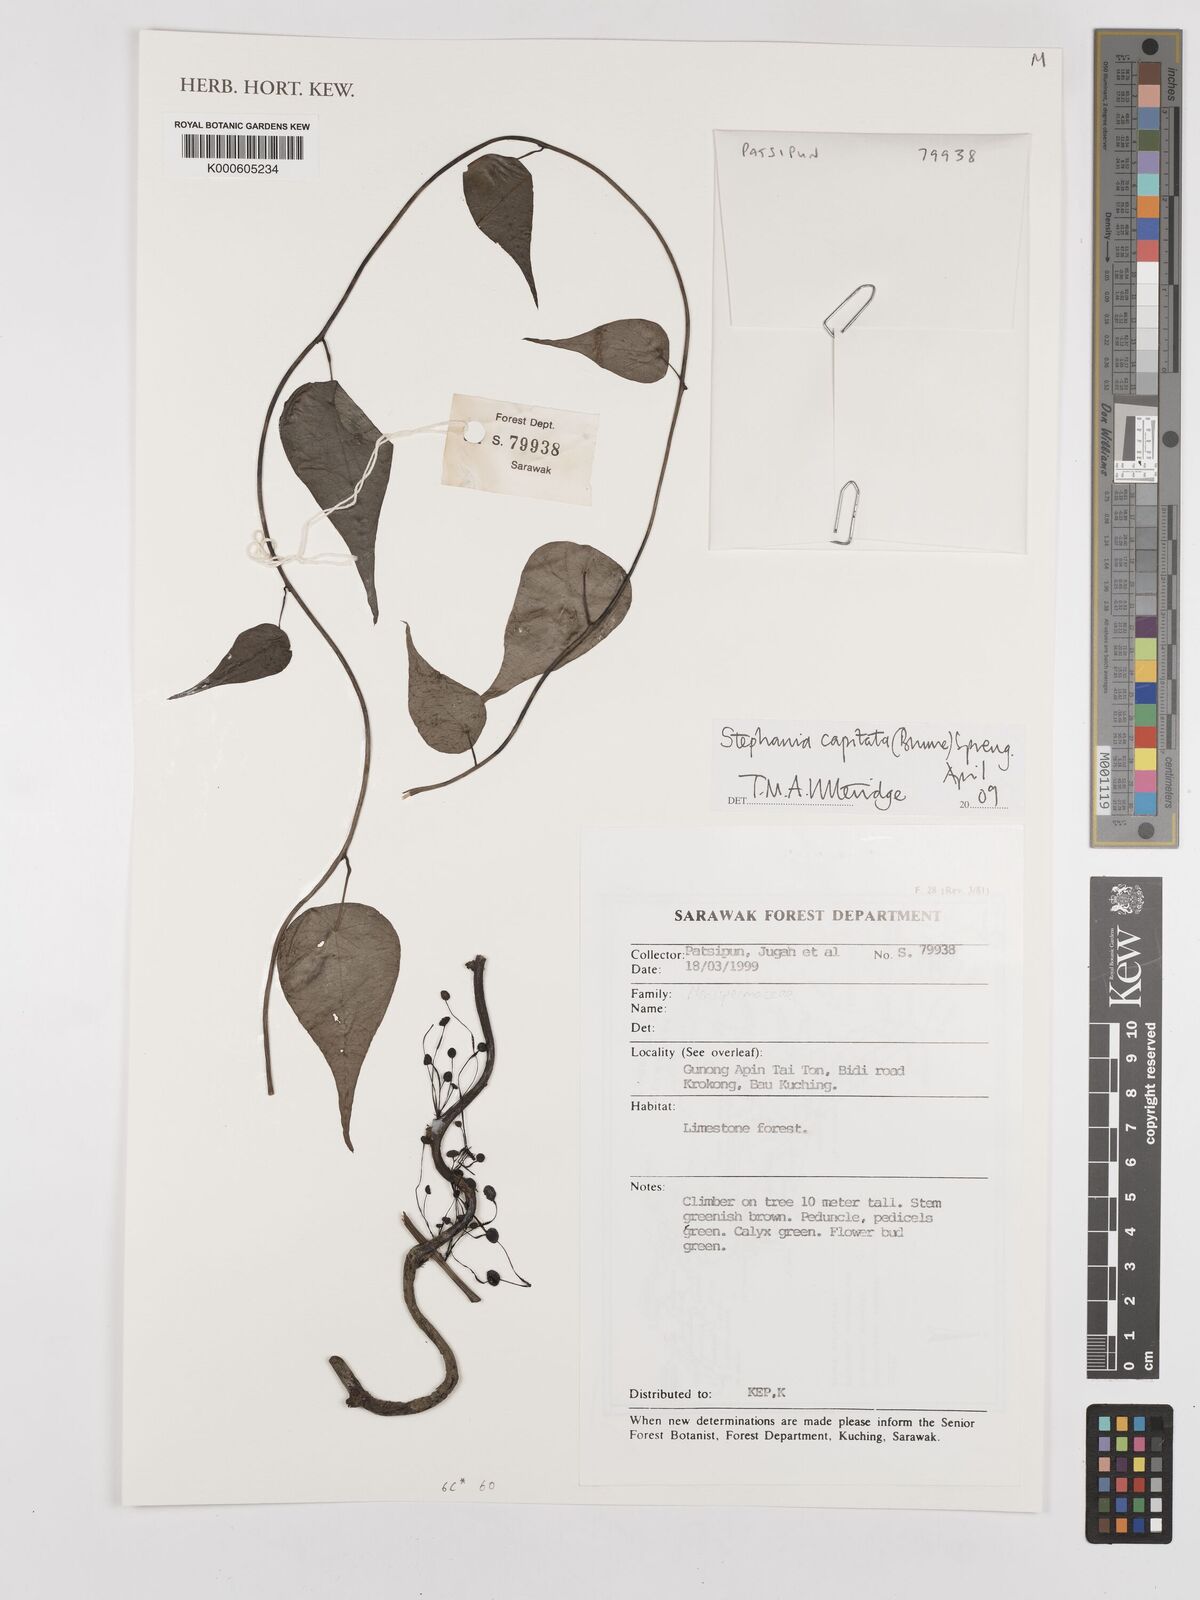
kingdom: Plantae
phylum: Tracheophyta
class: Magnoliopsida
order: Ranunculales
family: Menispermaceae
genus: Stephania
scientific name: Stephania capitata
